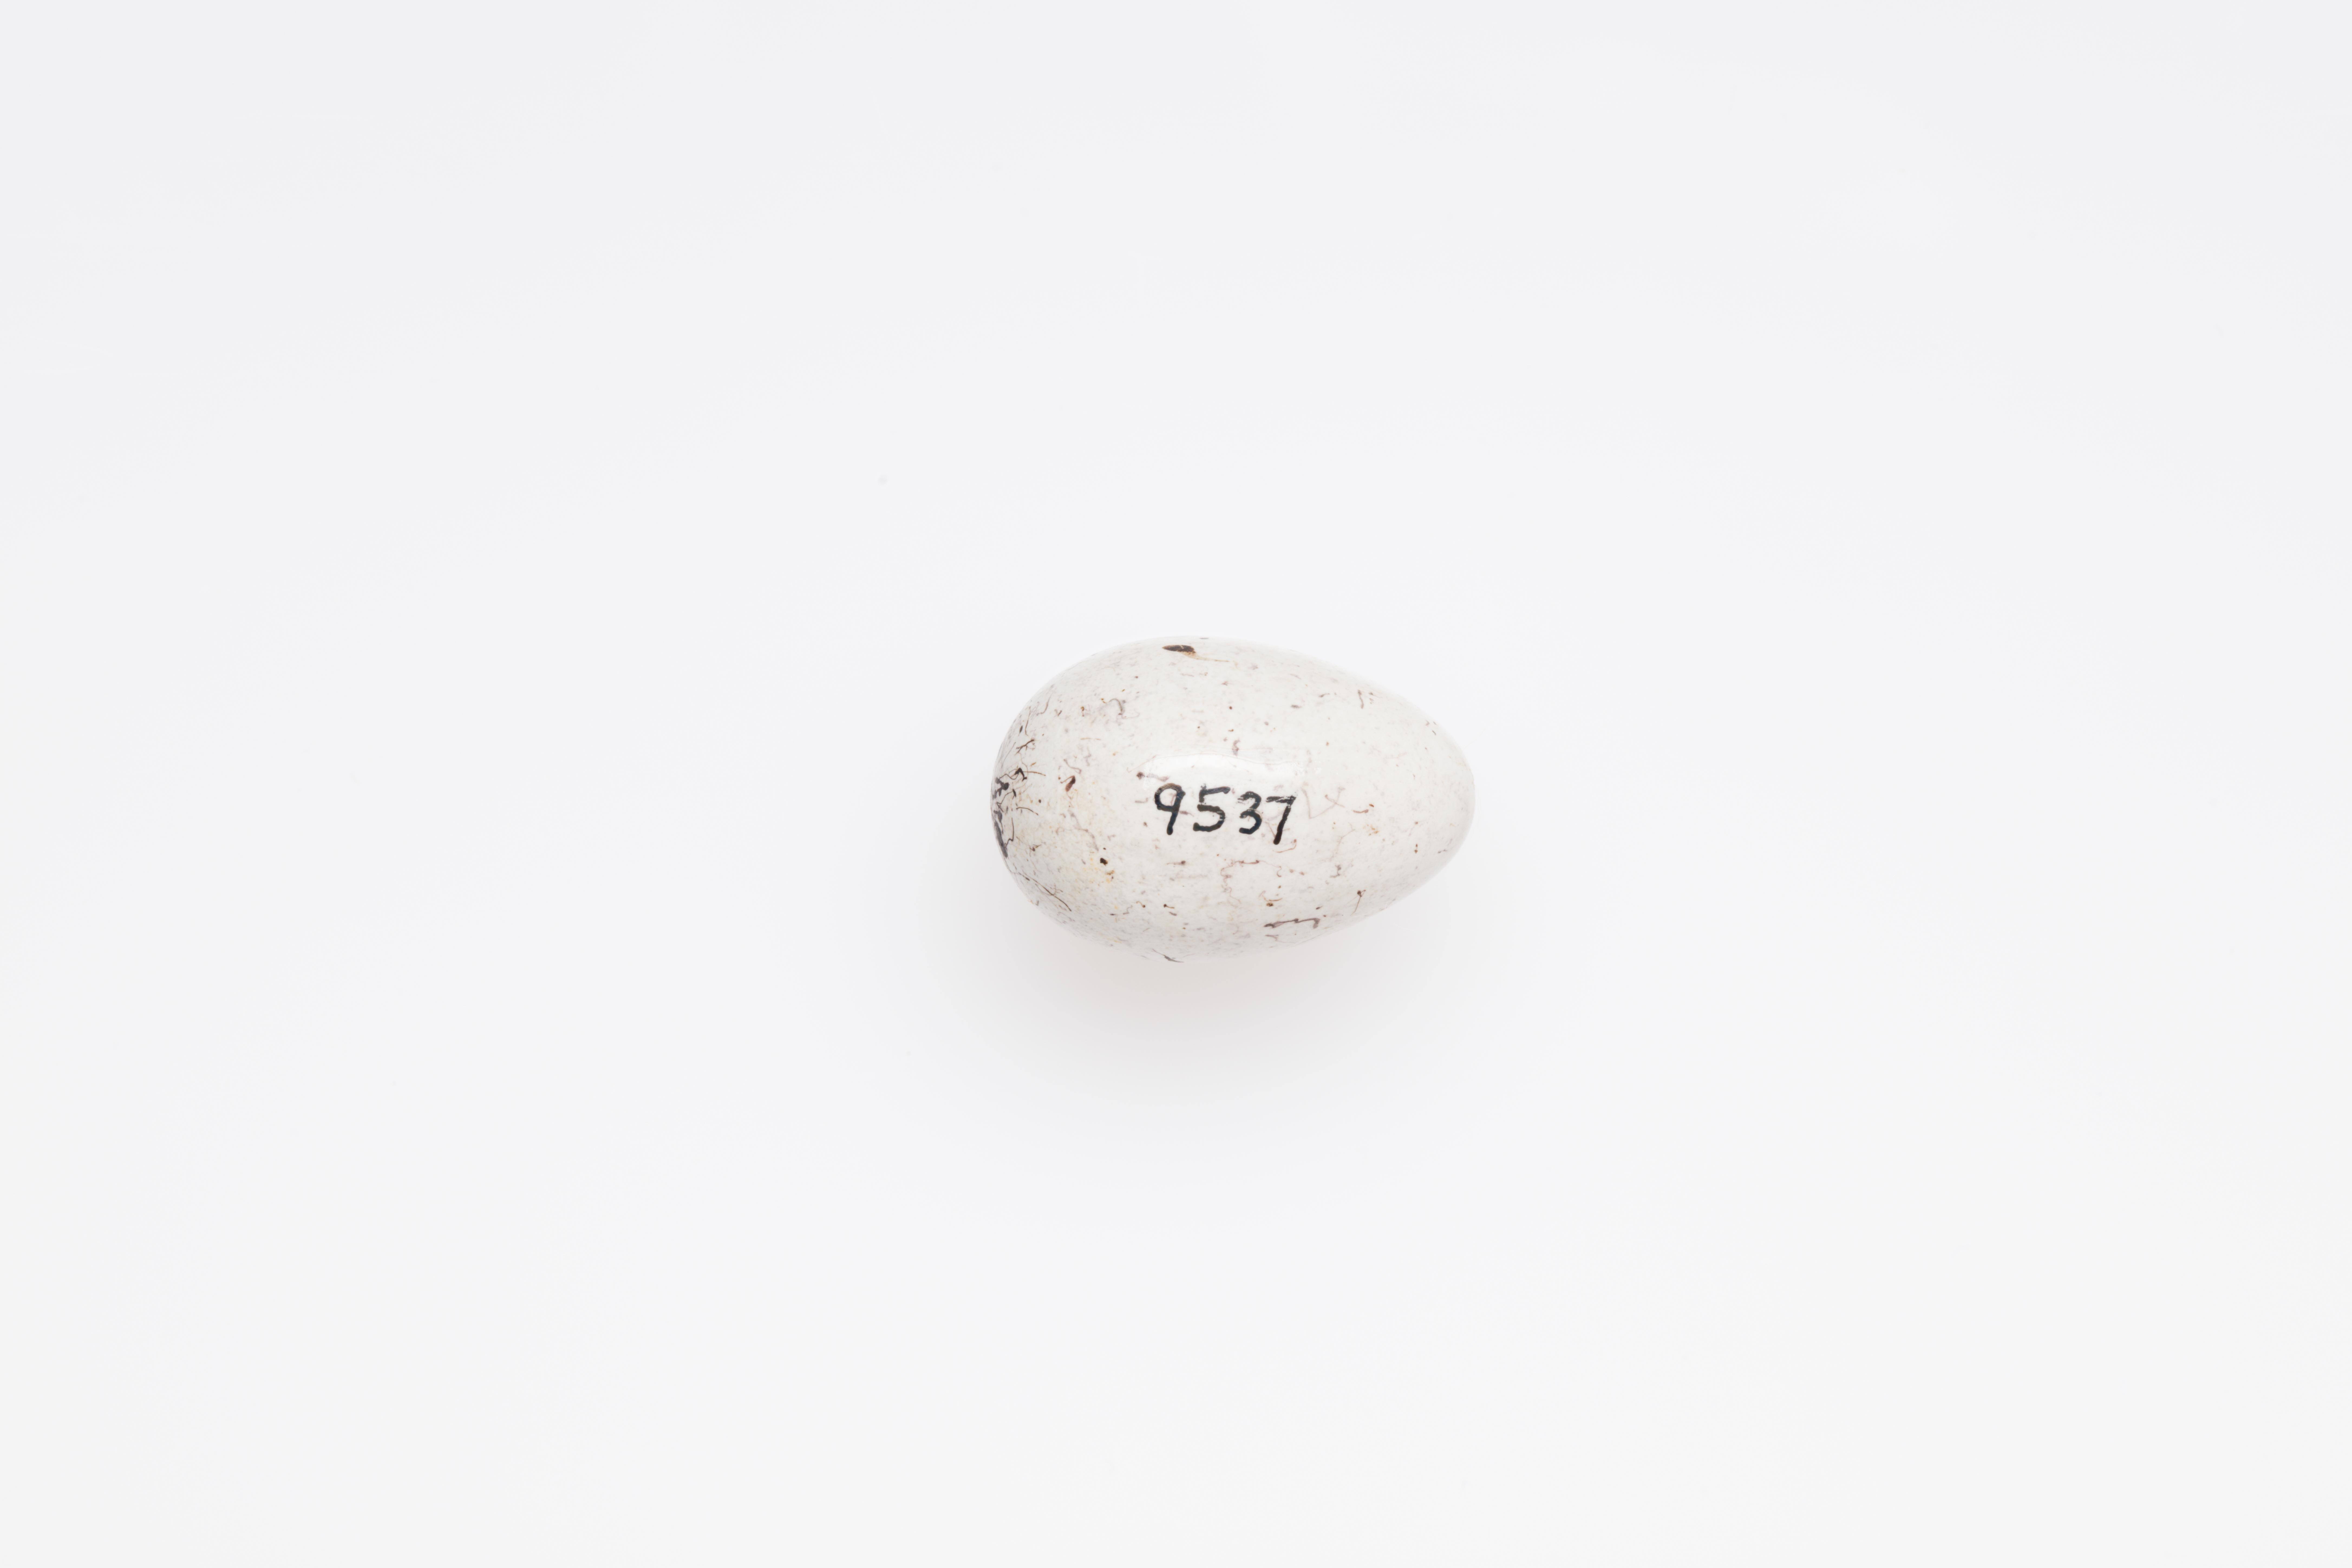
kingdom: Animalia
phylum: Chordata
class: Aves
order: Passeriformes
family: Emberizidae
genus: Emberiza
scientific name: Emberiza citrinella
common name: Yellowhammer
